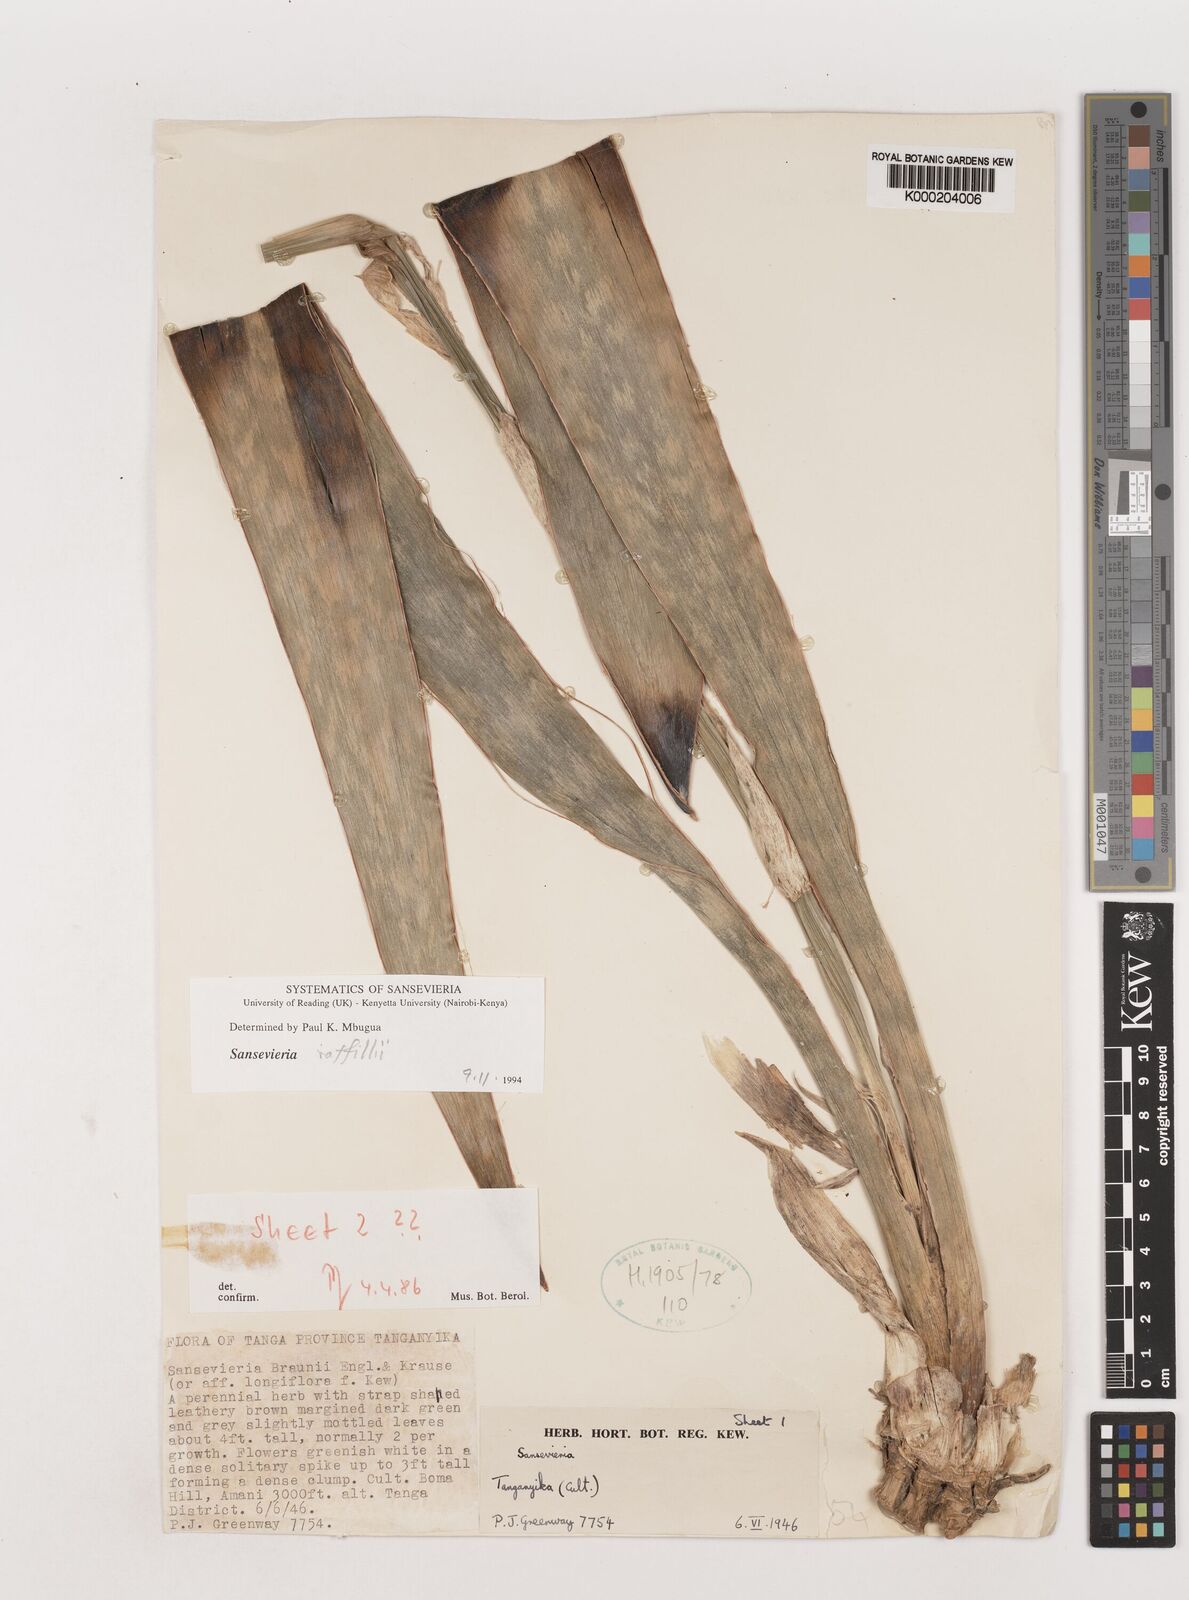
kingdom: Plantae
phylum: Tracheophyta
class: Liliopsida
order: Asparagales
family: Asparagaceae
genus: Dracaena
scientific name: Dracaena
